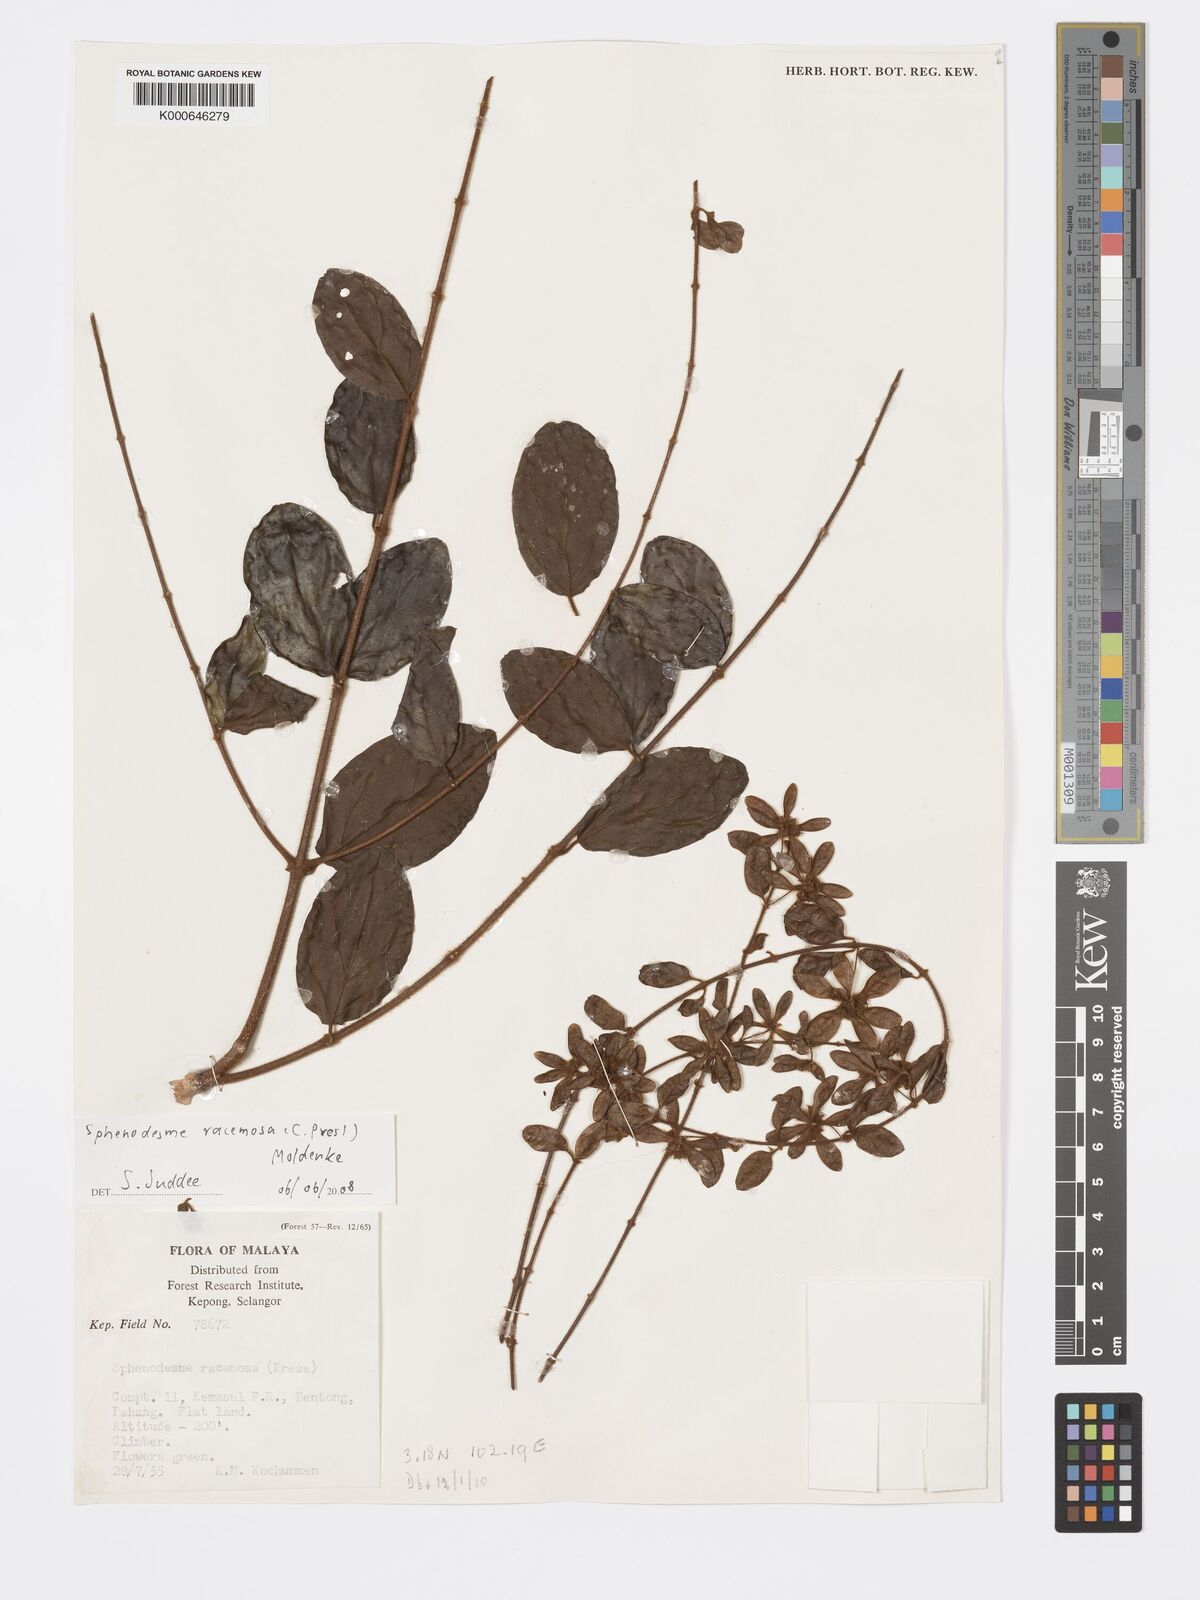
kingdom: Plantae
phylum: Tracheophyta
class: Magnoliopsida
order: Lamiales
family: Lamiaceae
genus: Sphenodesme
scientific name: Sphenodesme racemosa
